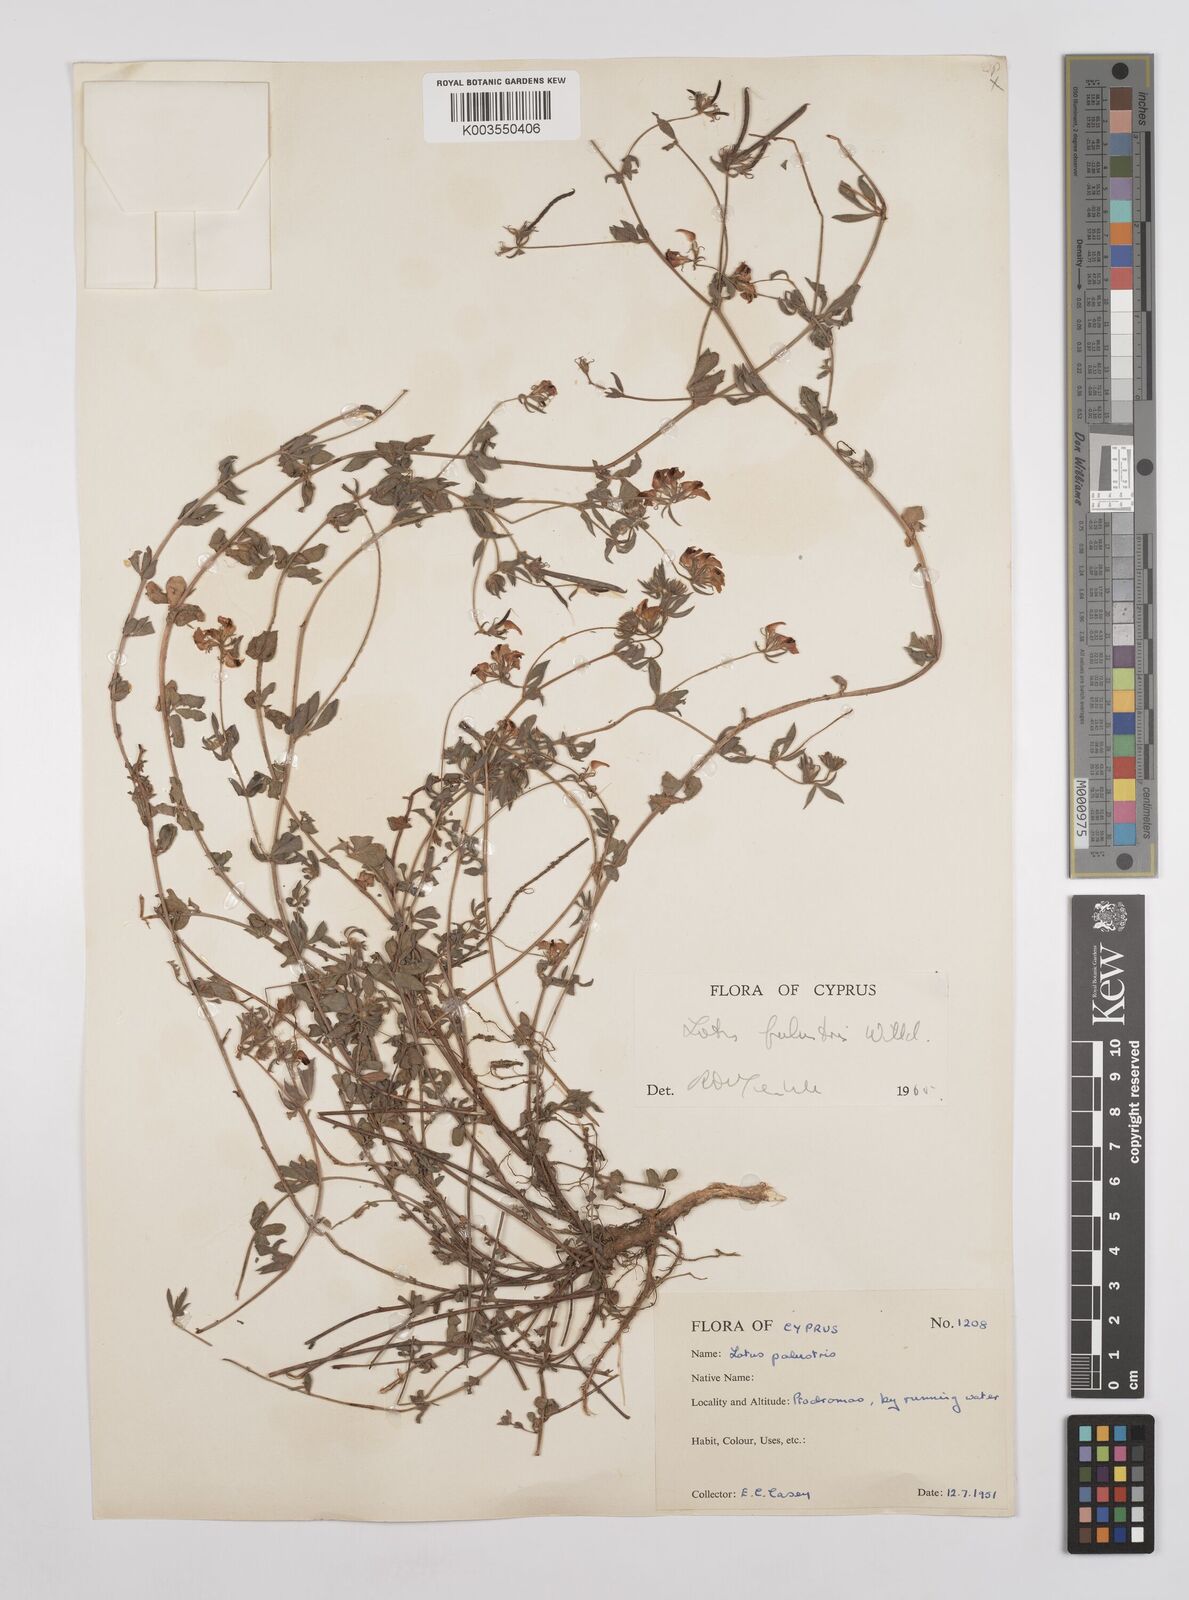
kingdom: Plantae
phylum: Tracheophyta
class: Magnoliopsida
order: Fabales
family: Fabaceae
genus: Lotus
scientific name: Lotus palustris
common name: Large birds-foot trefoil
